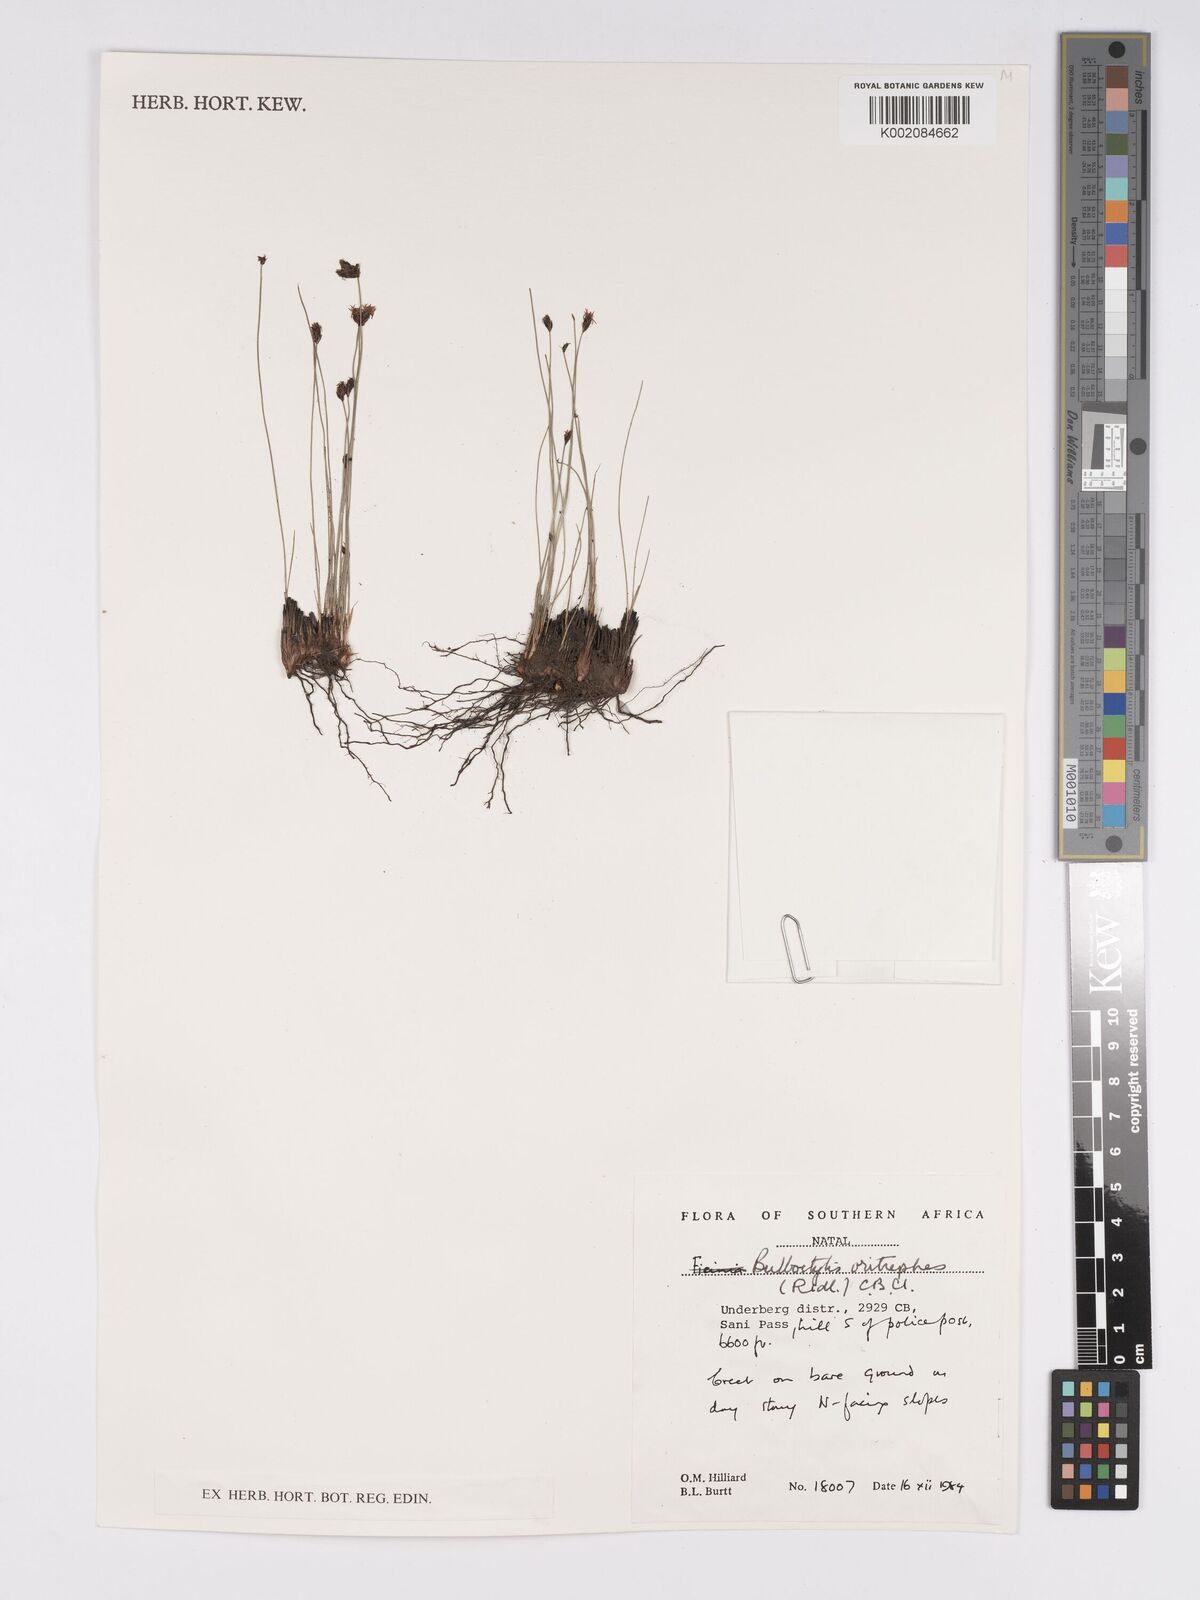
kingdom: Plantae
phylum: Tracheophyta
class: Liliopsida
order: Poales
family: Cyperaceae
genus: Bulbostylis
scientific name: Bulbostylis oritrephes
